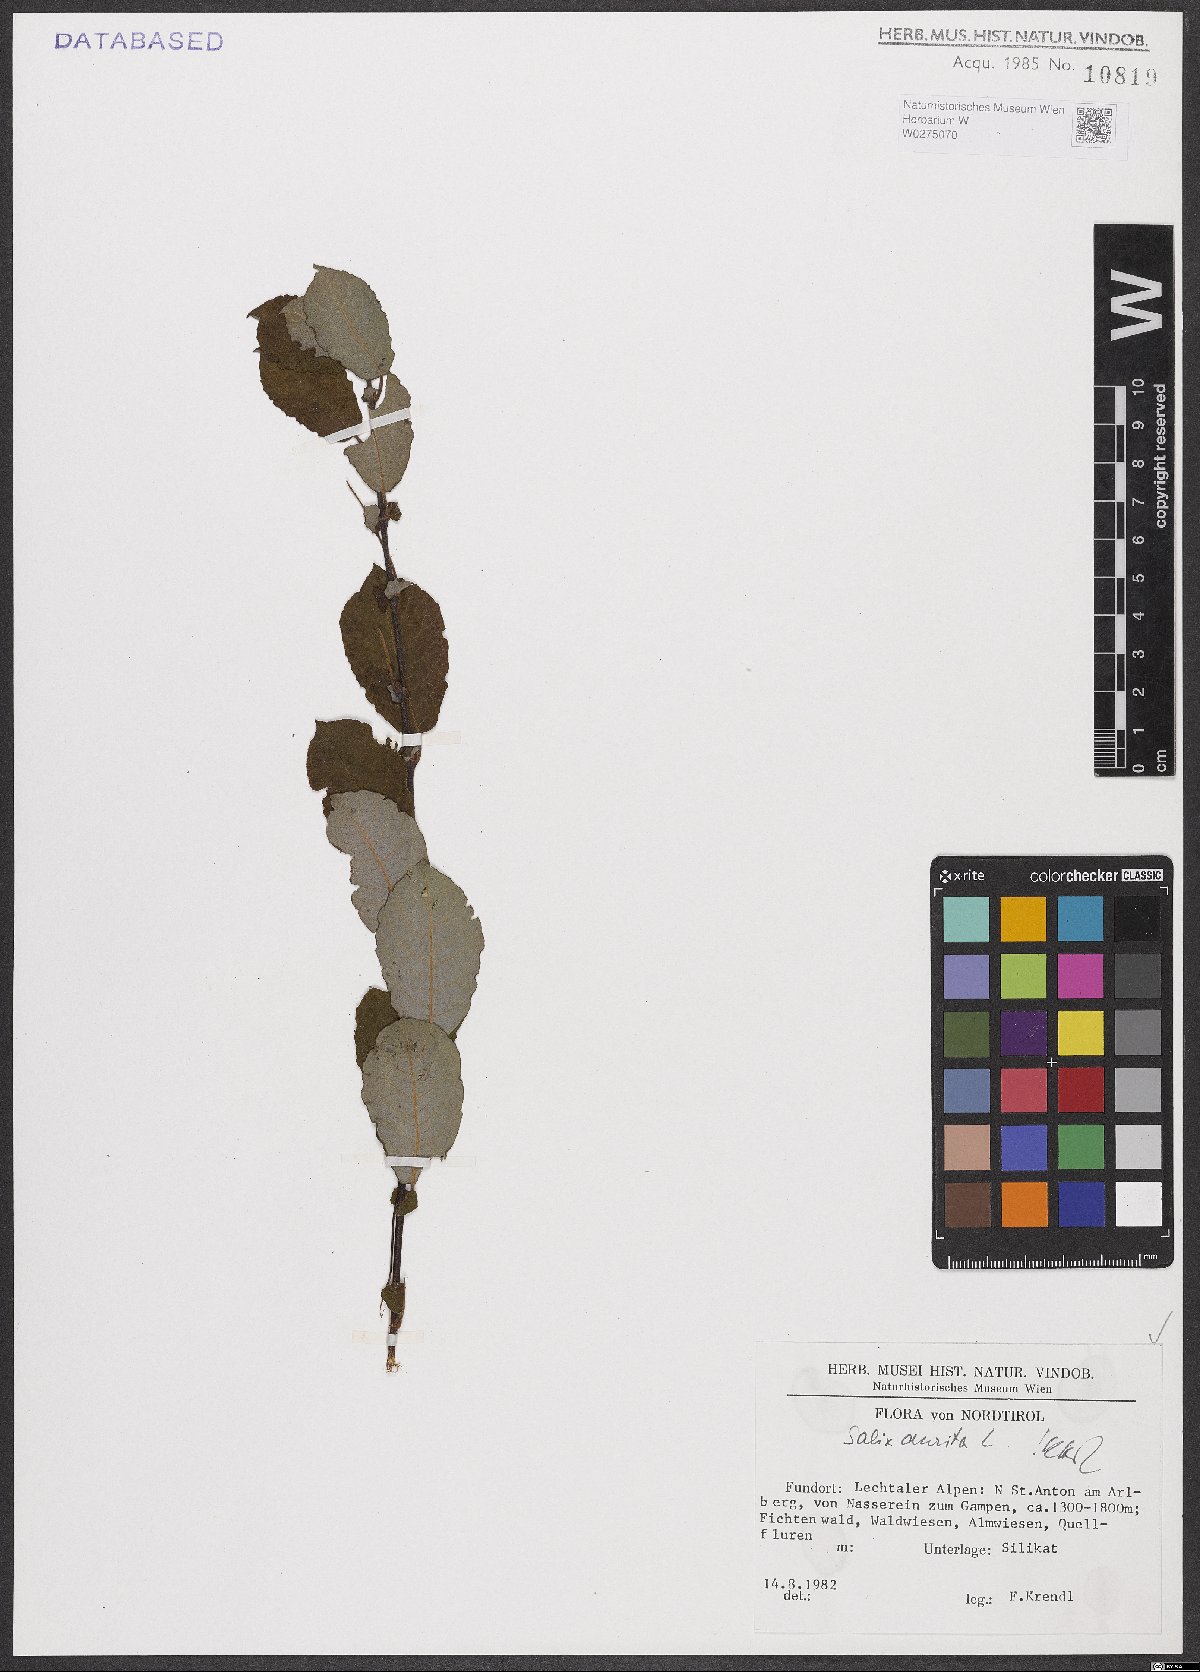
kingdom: Plantae
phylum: Tracheophyta
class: Magnoliopsida
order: Malpighiales
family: Salicaceae
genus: Salix
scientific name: Salix aurita
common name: Eared willow
